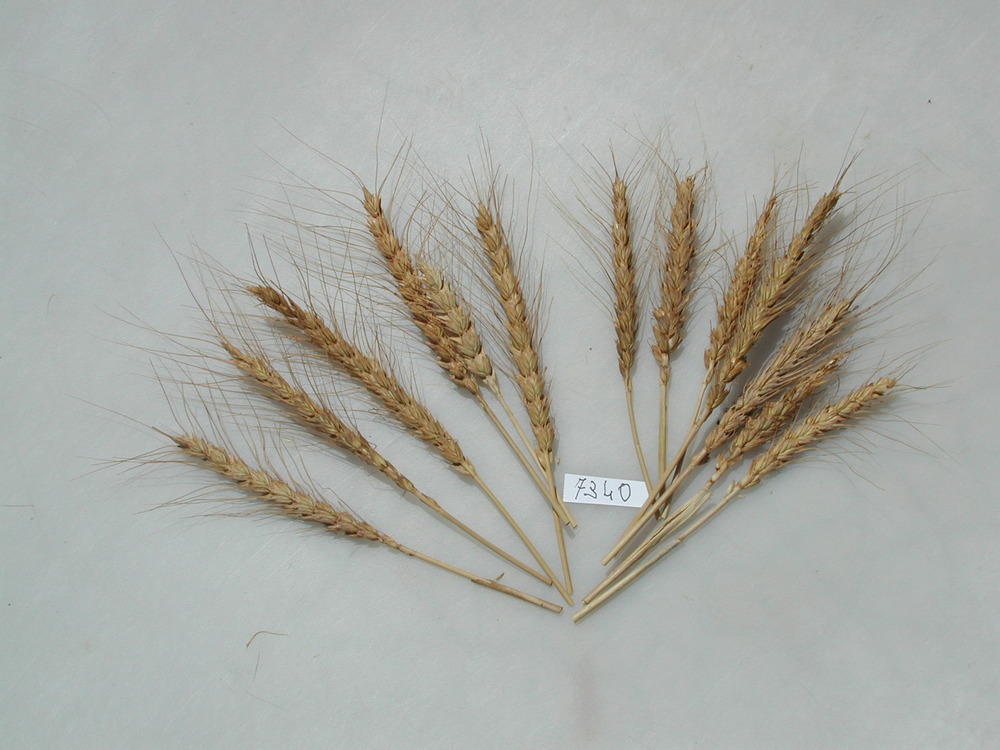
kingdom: Plantae
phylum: Tracheophyta
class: Liliopsida
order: Poales
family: Poaceae
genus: Triticum
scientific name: Triticum aestivum
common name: Wheat
